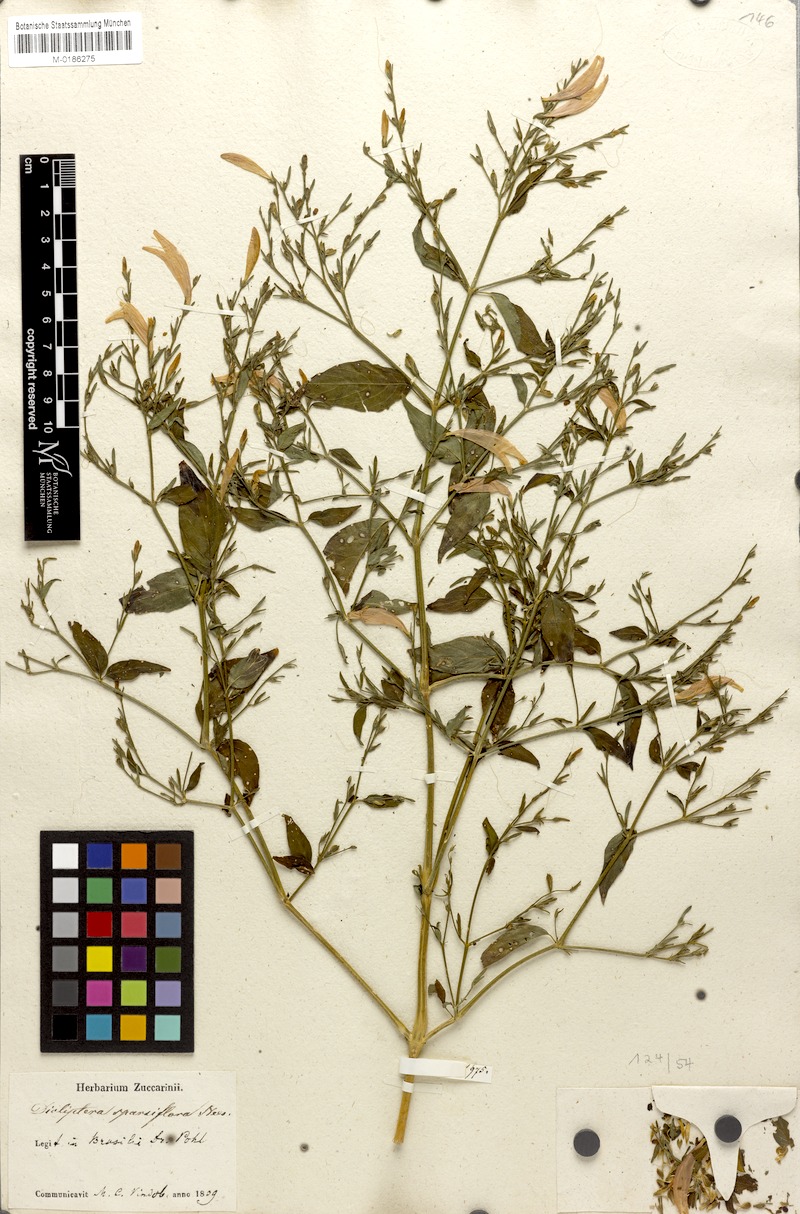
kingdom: Plantae
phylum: Tracheophyta
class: Magnoliopsida
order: Lamiales
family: Acanthaceae
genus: Dicliptera
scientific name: Dicliptera sparsiflora
